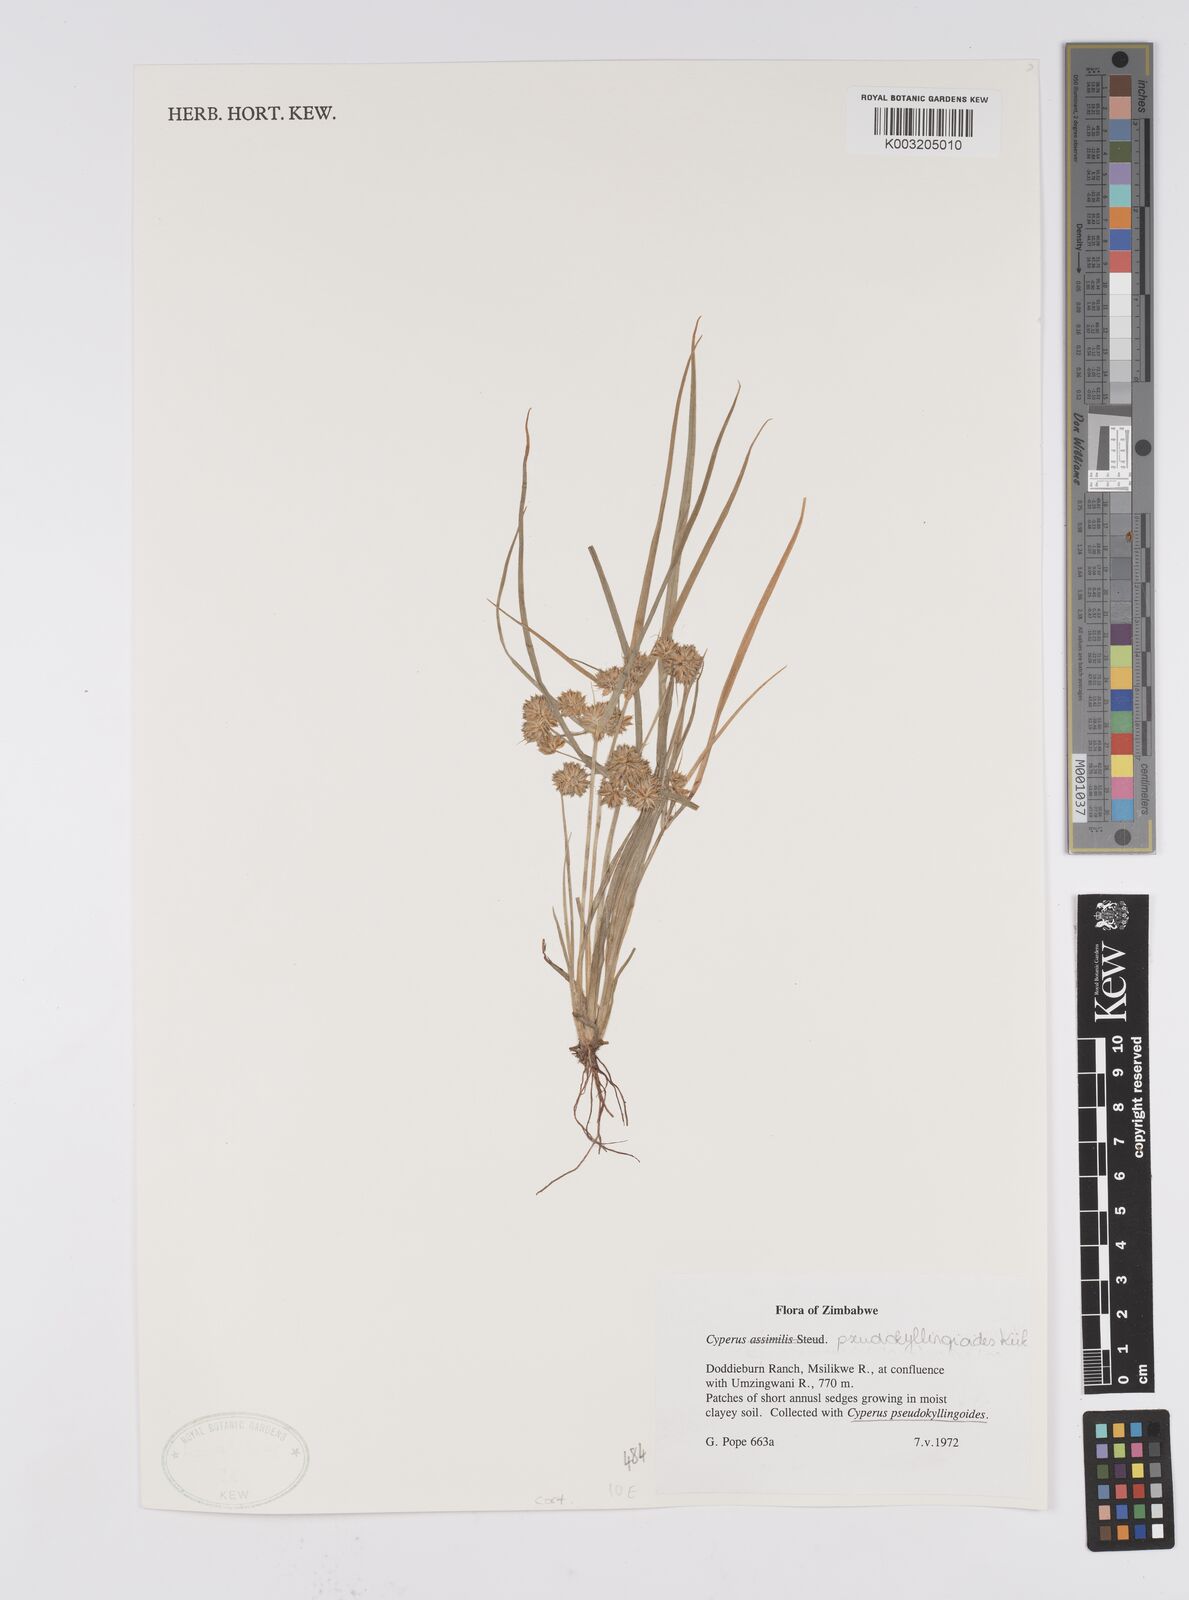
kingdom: Plantae
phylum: Tracheophyta
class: Liliopsida
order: Poales
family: Cyperaceae
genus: Cyperus
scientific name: Cyperus cyperoides
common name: Pacific island flat sedge
